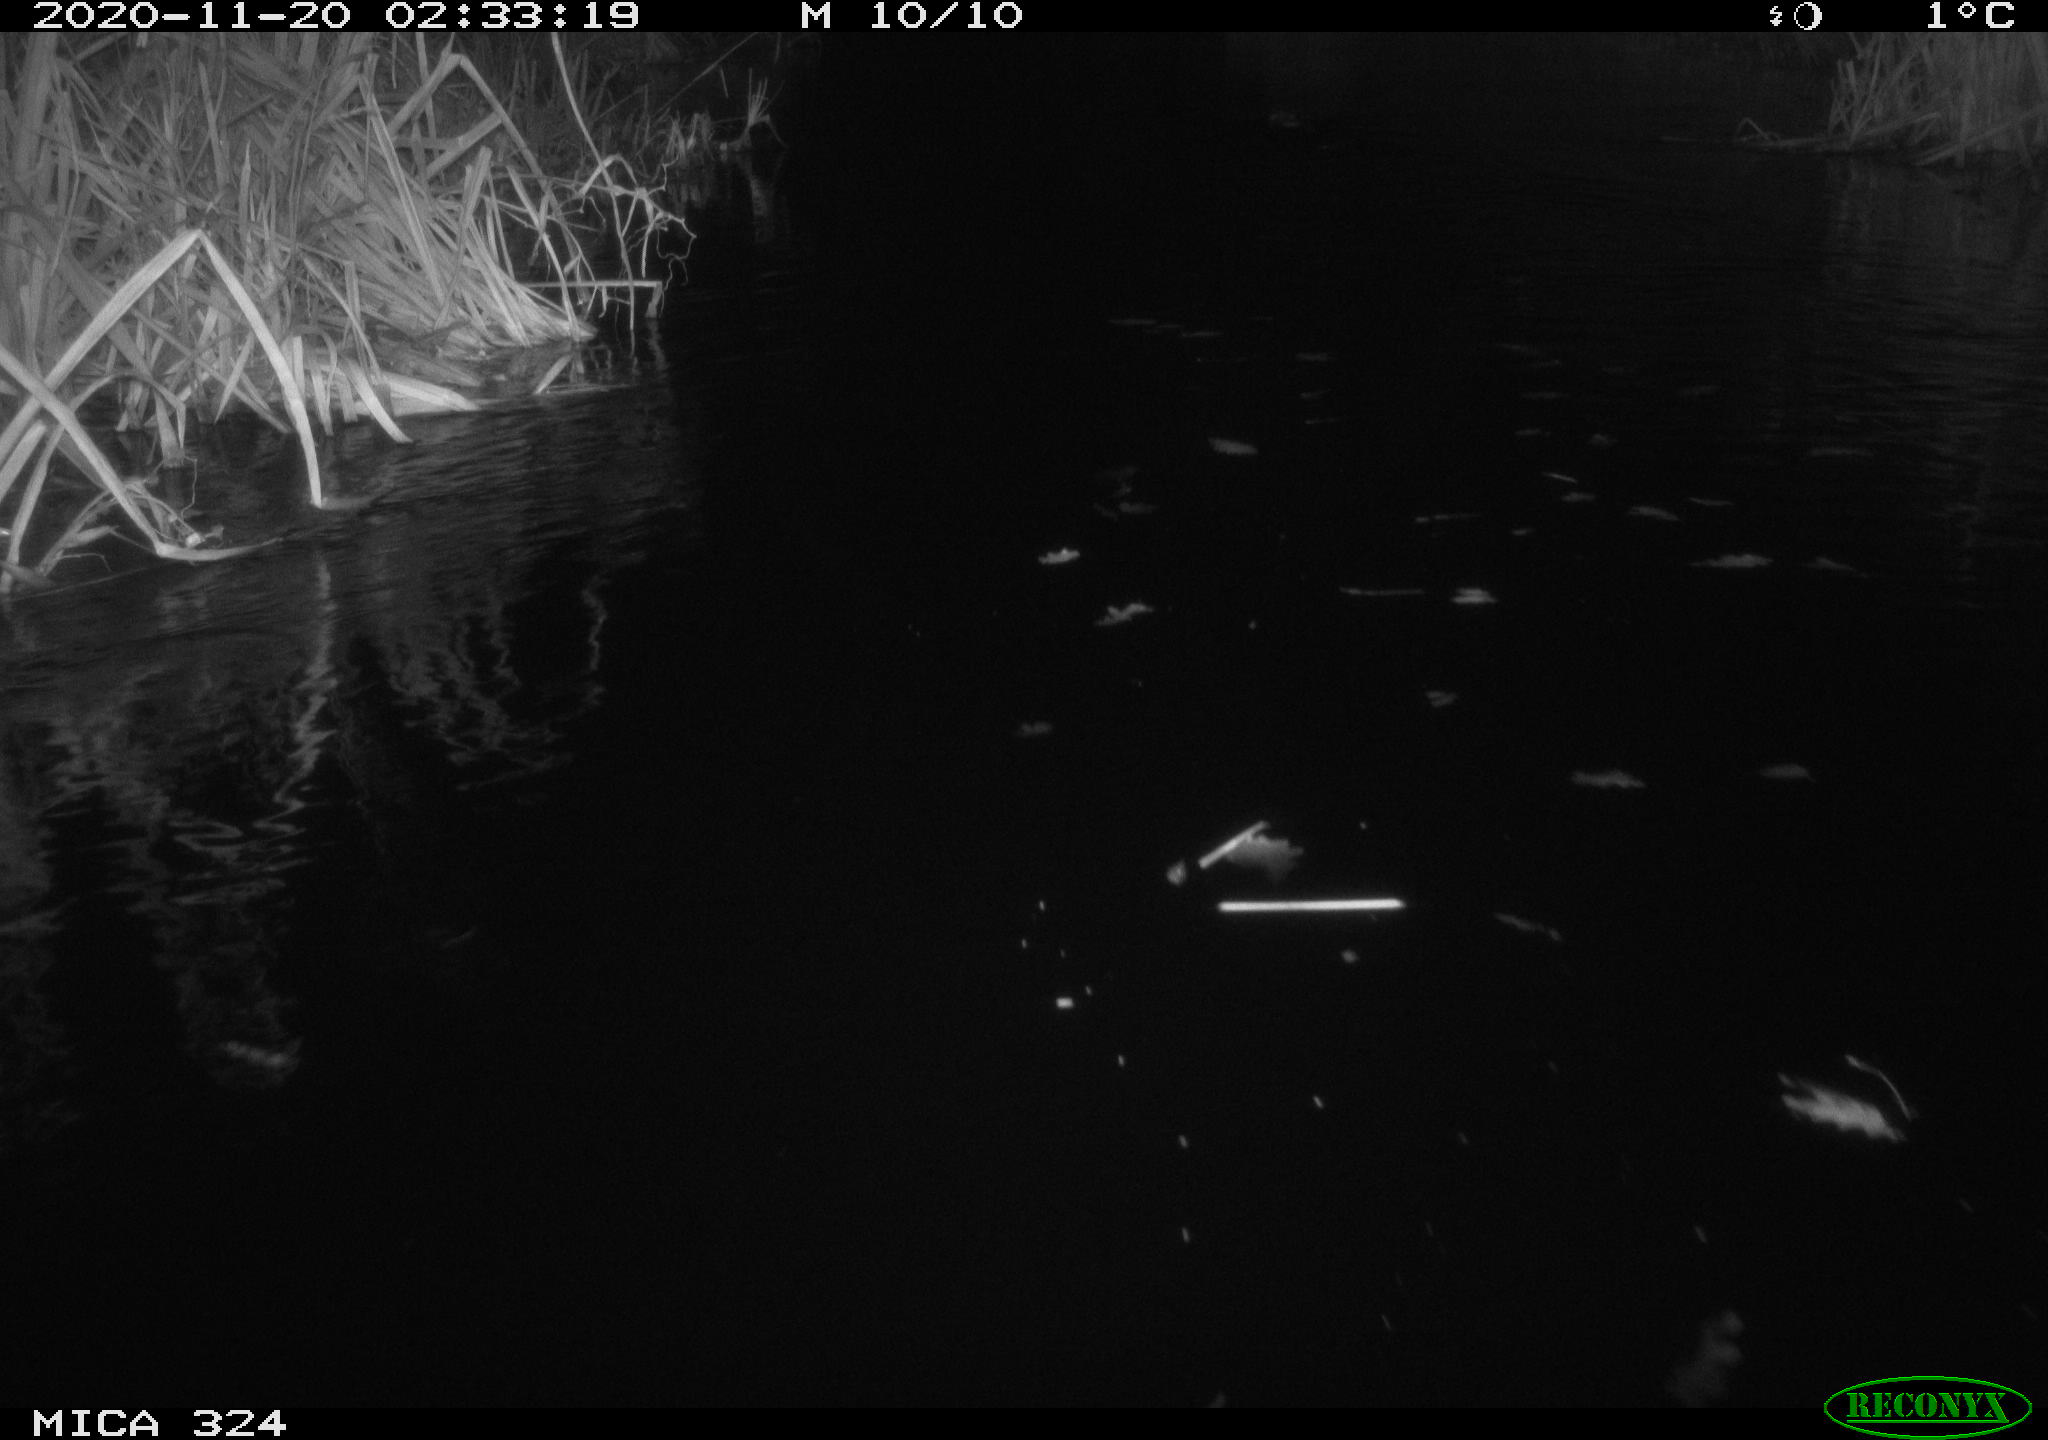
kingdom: Animalia
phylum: Chordata
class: Mammalia
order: Rodentia
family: Cricetidae
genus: Ondatra
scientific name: Ondatra zibethicus
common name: Muskrat
